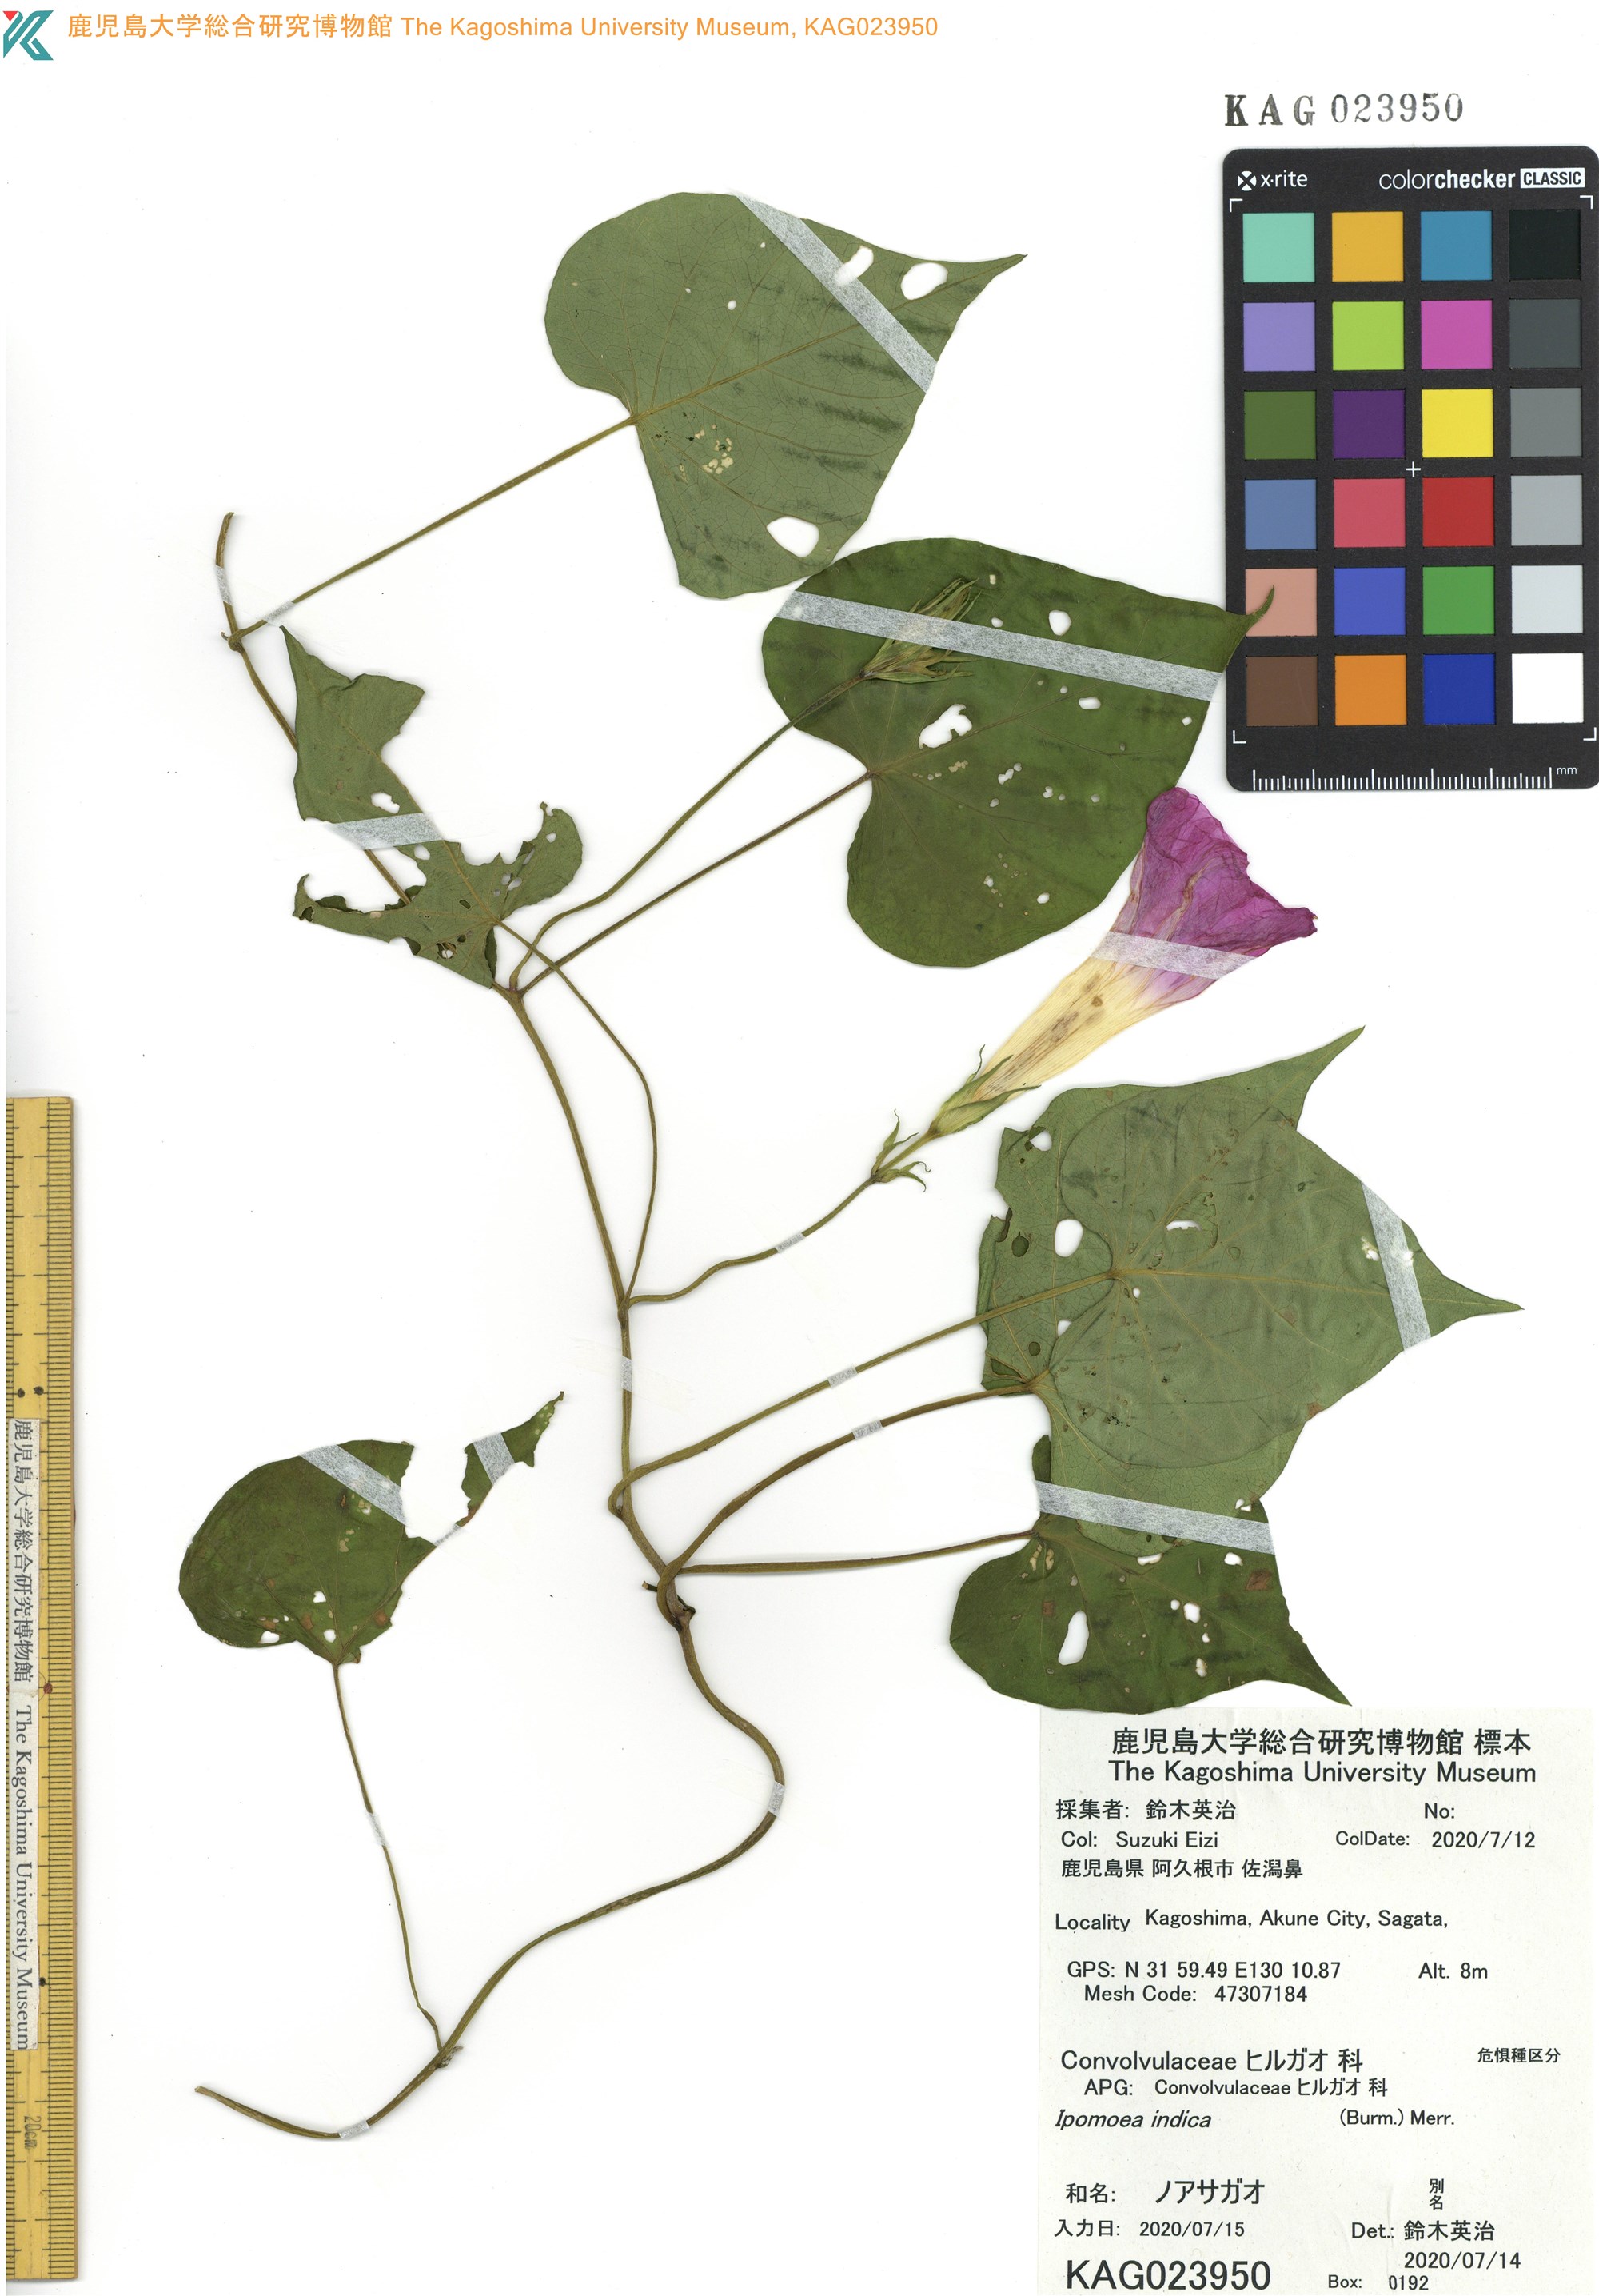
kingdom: Plantae
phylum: Tracheophyta
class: Magnoliopsida
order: Solanales
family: Convolvulaceae
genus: Ipomoea
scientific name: Ipomoea indica
